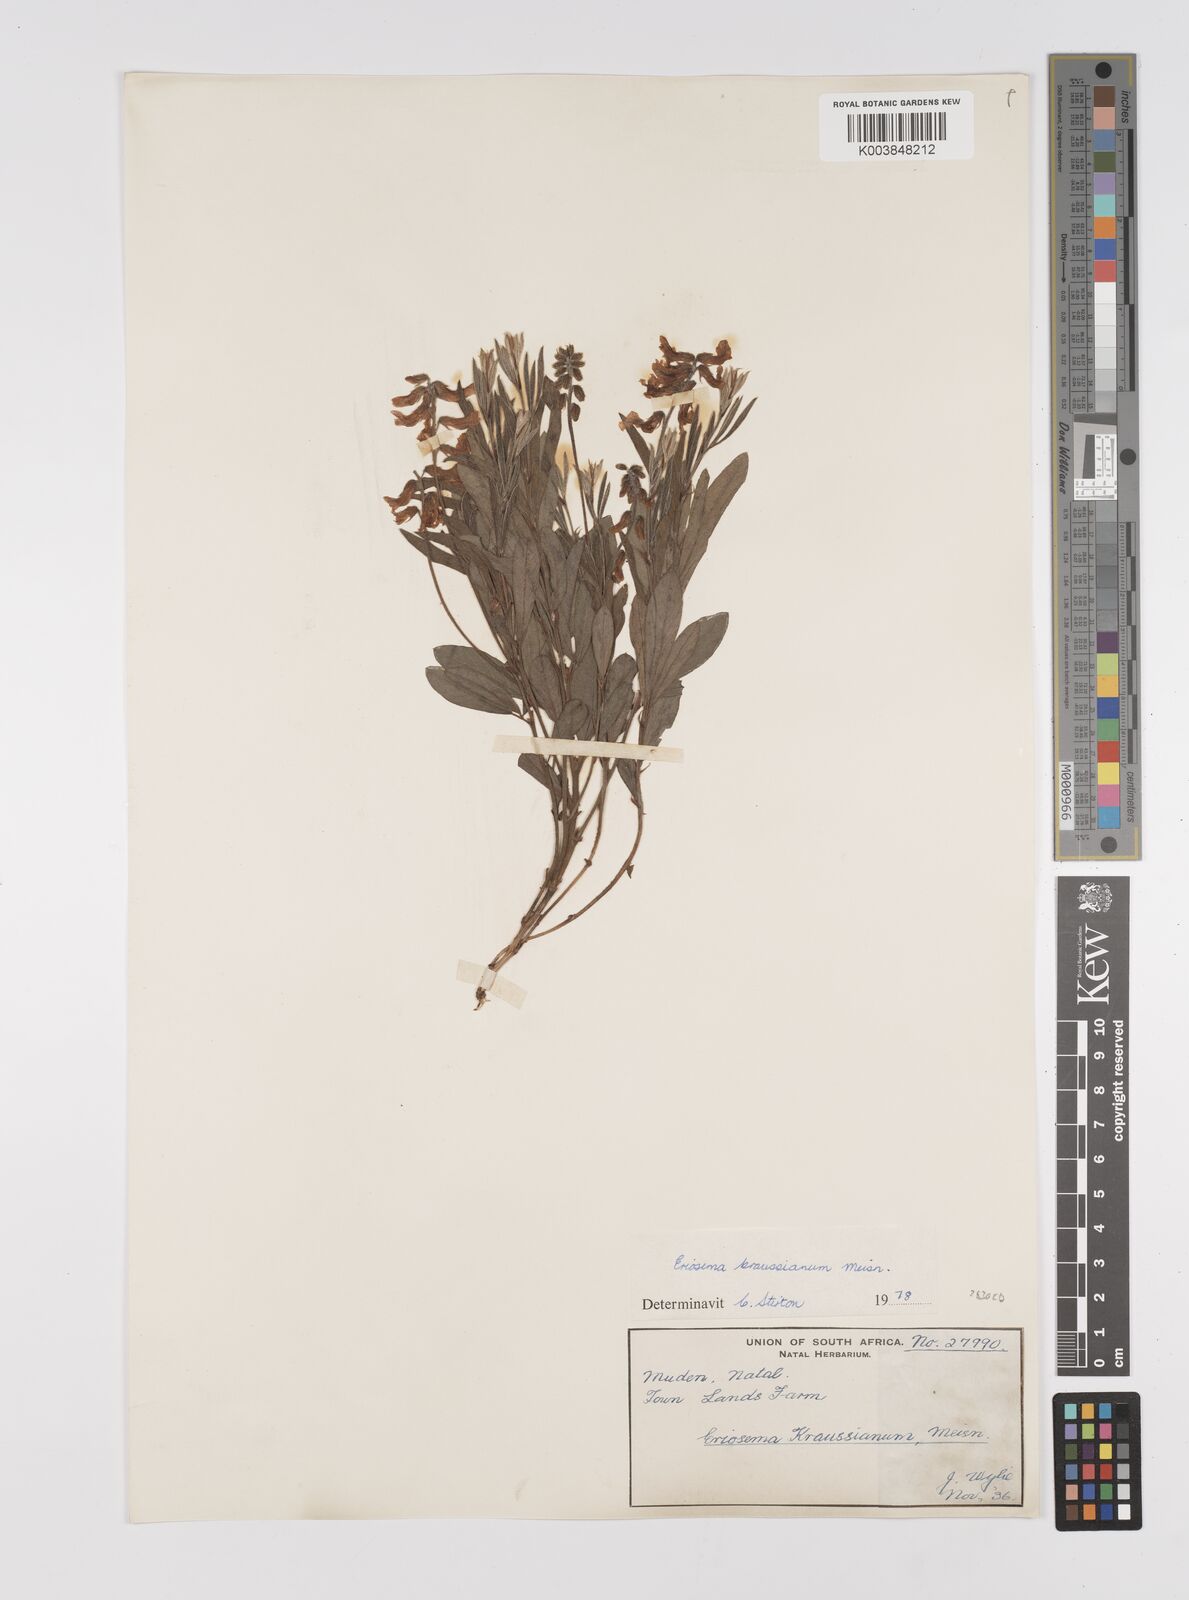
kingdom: Plantae
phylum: Tracheophyta
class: Magnoliopsida
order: Fabales
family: Fabaceae
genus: Eriosema
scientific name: Eriosema kraussianum
